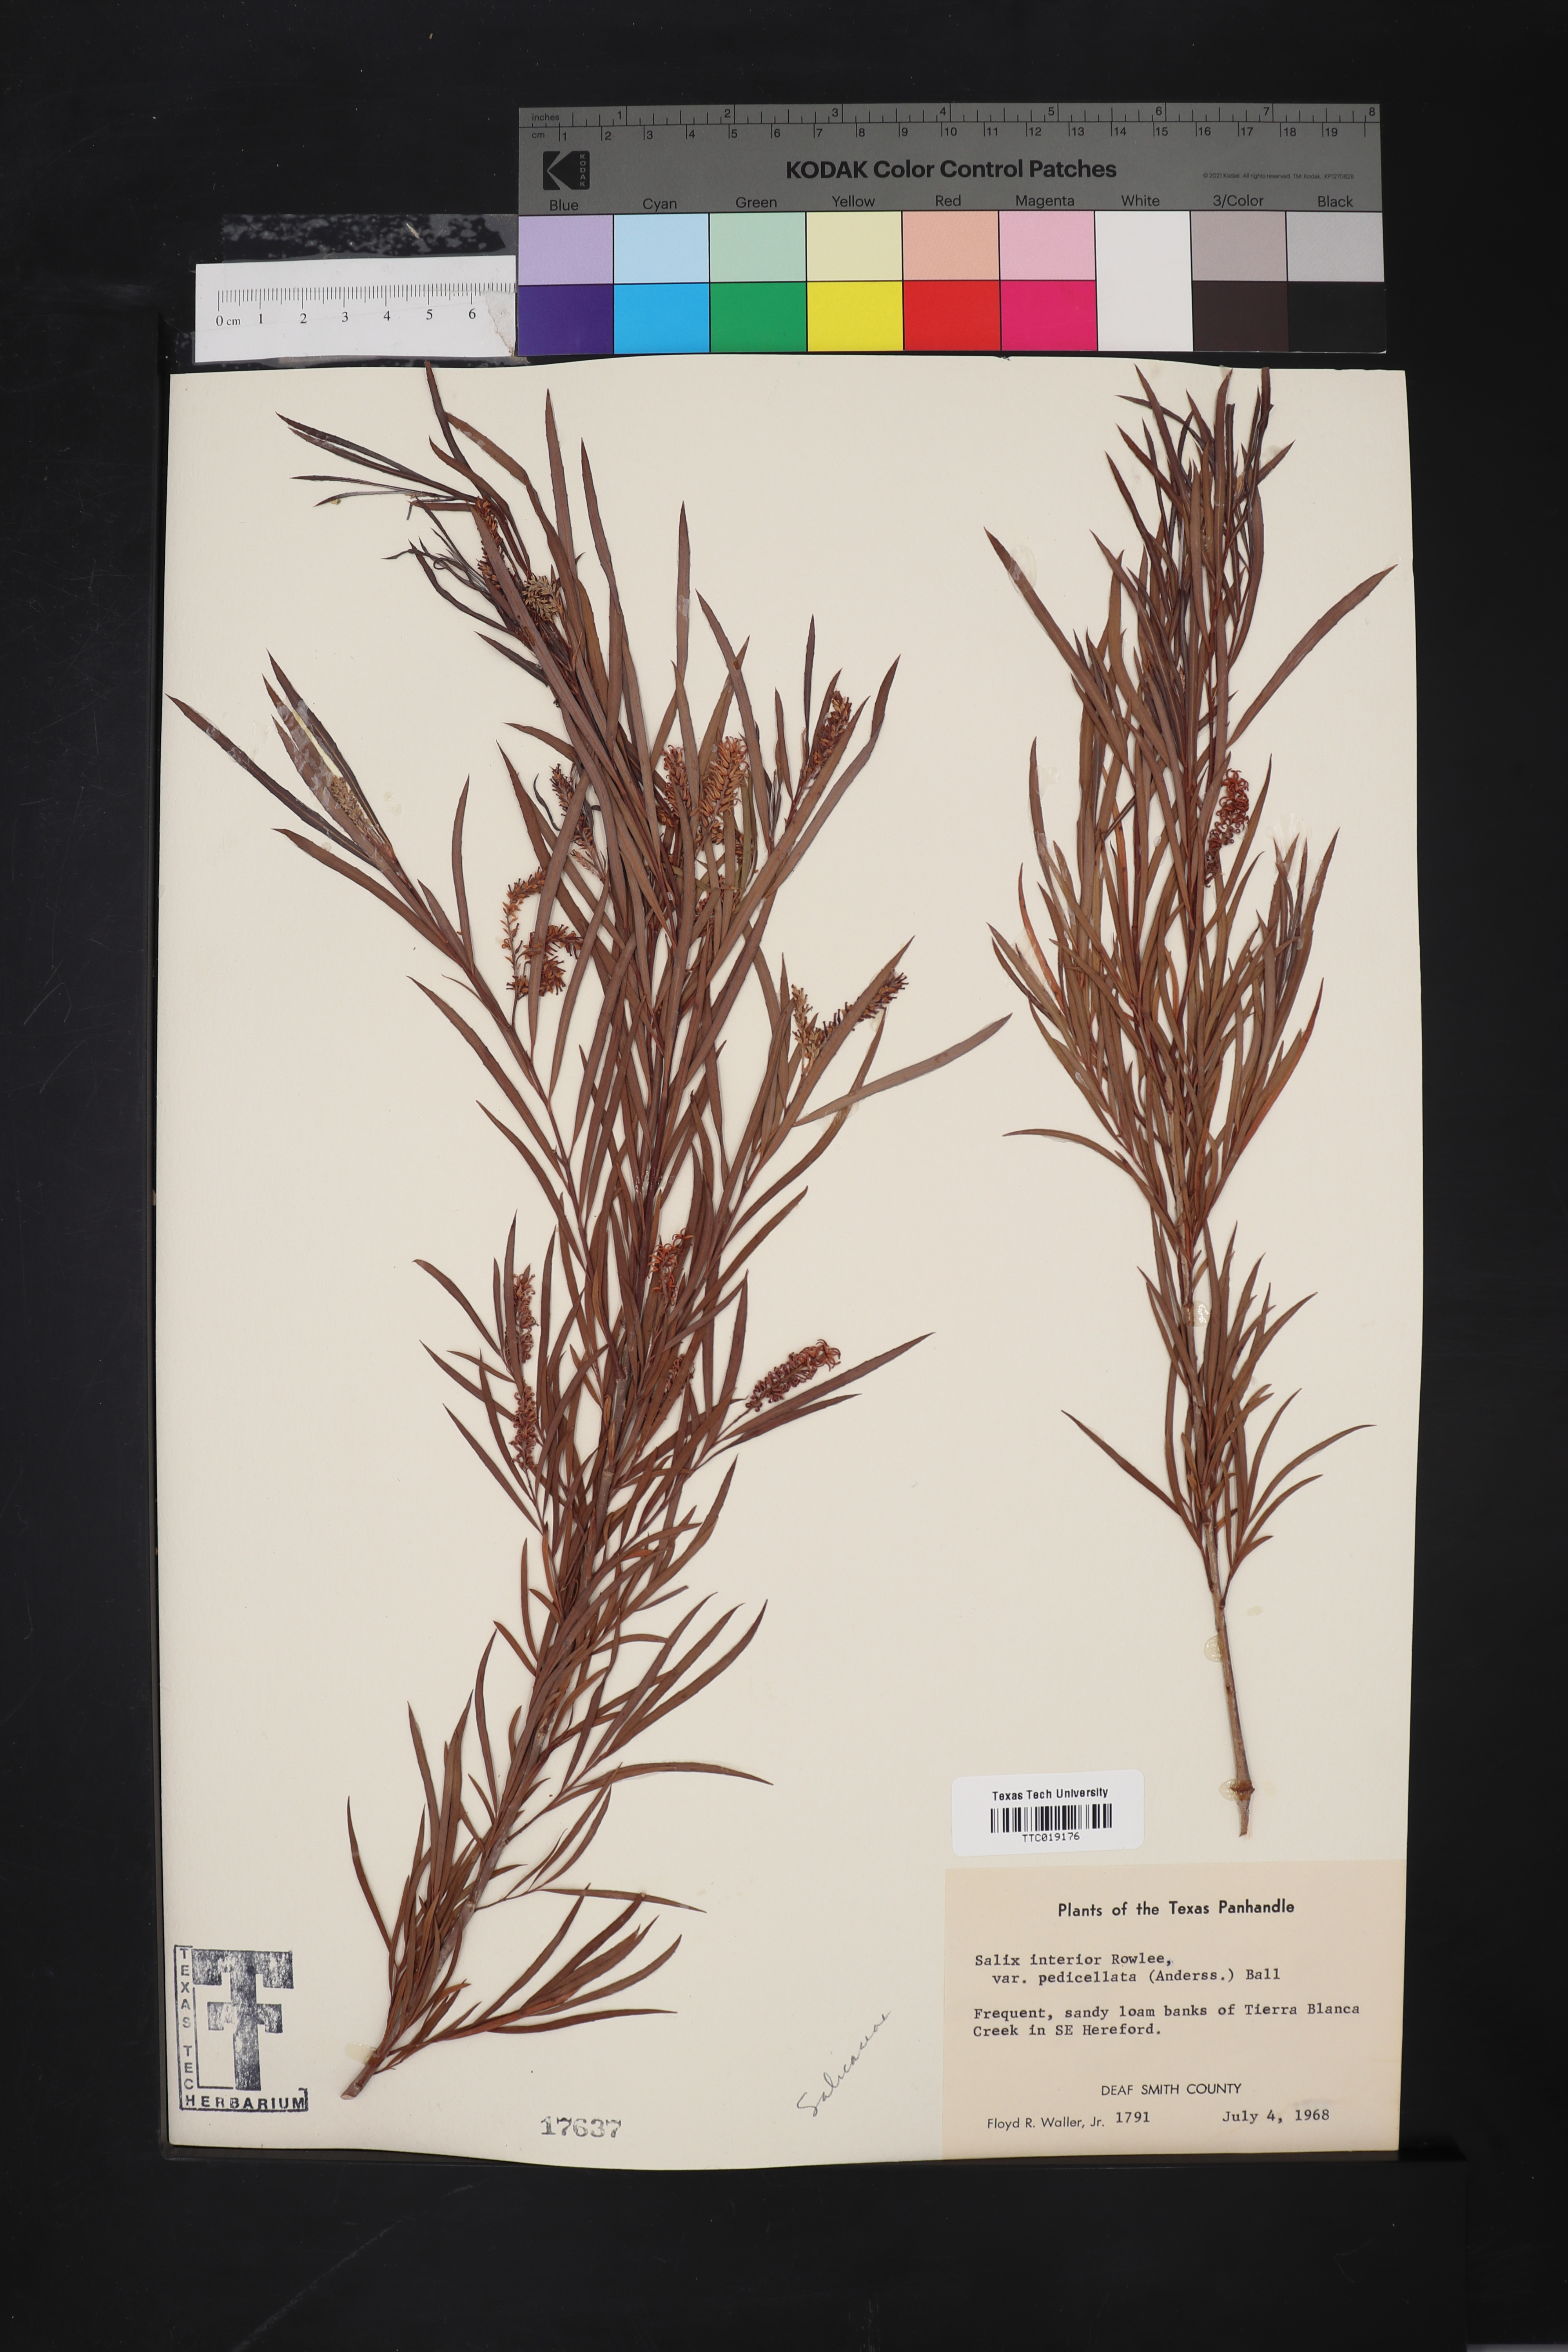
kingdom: Plantae
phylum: Tracheophyta
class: Magnoliopsida
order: Malpighiales
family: Salicaceae
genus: Salix
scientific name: Salix interior
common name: Sandbar willow
